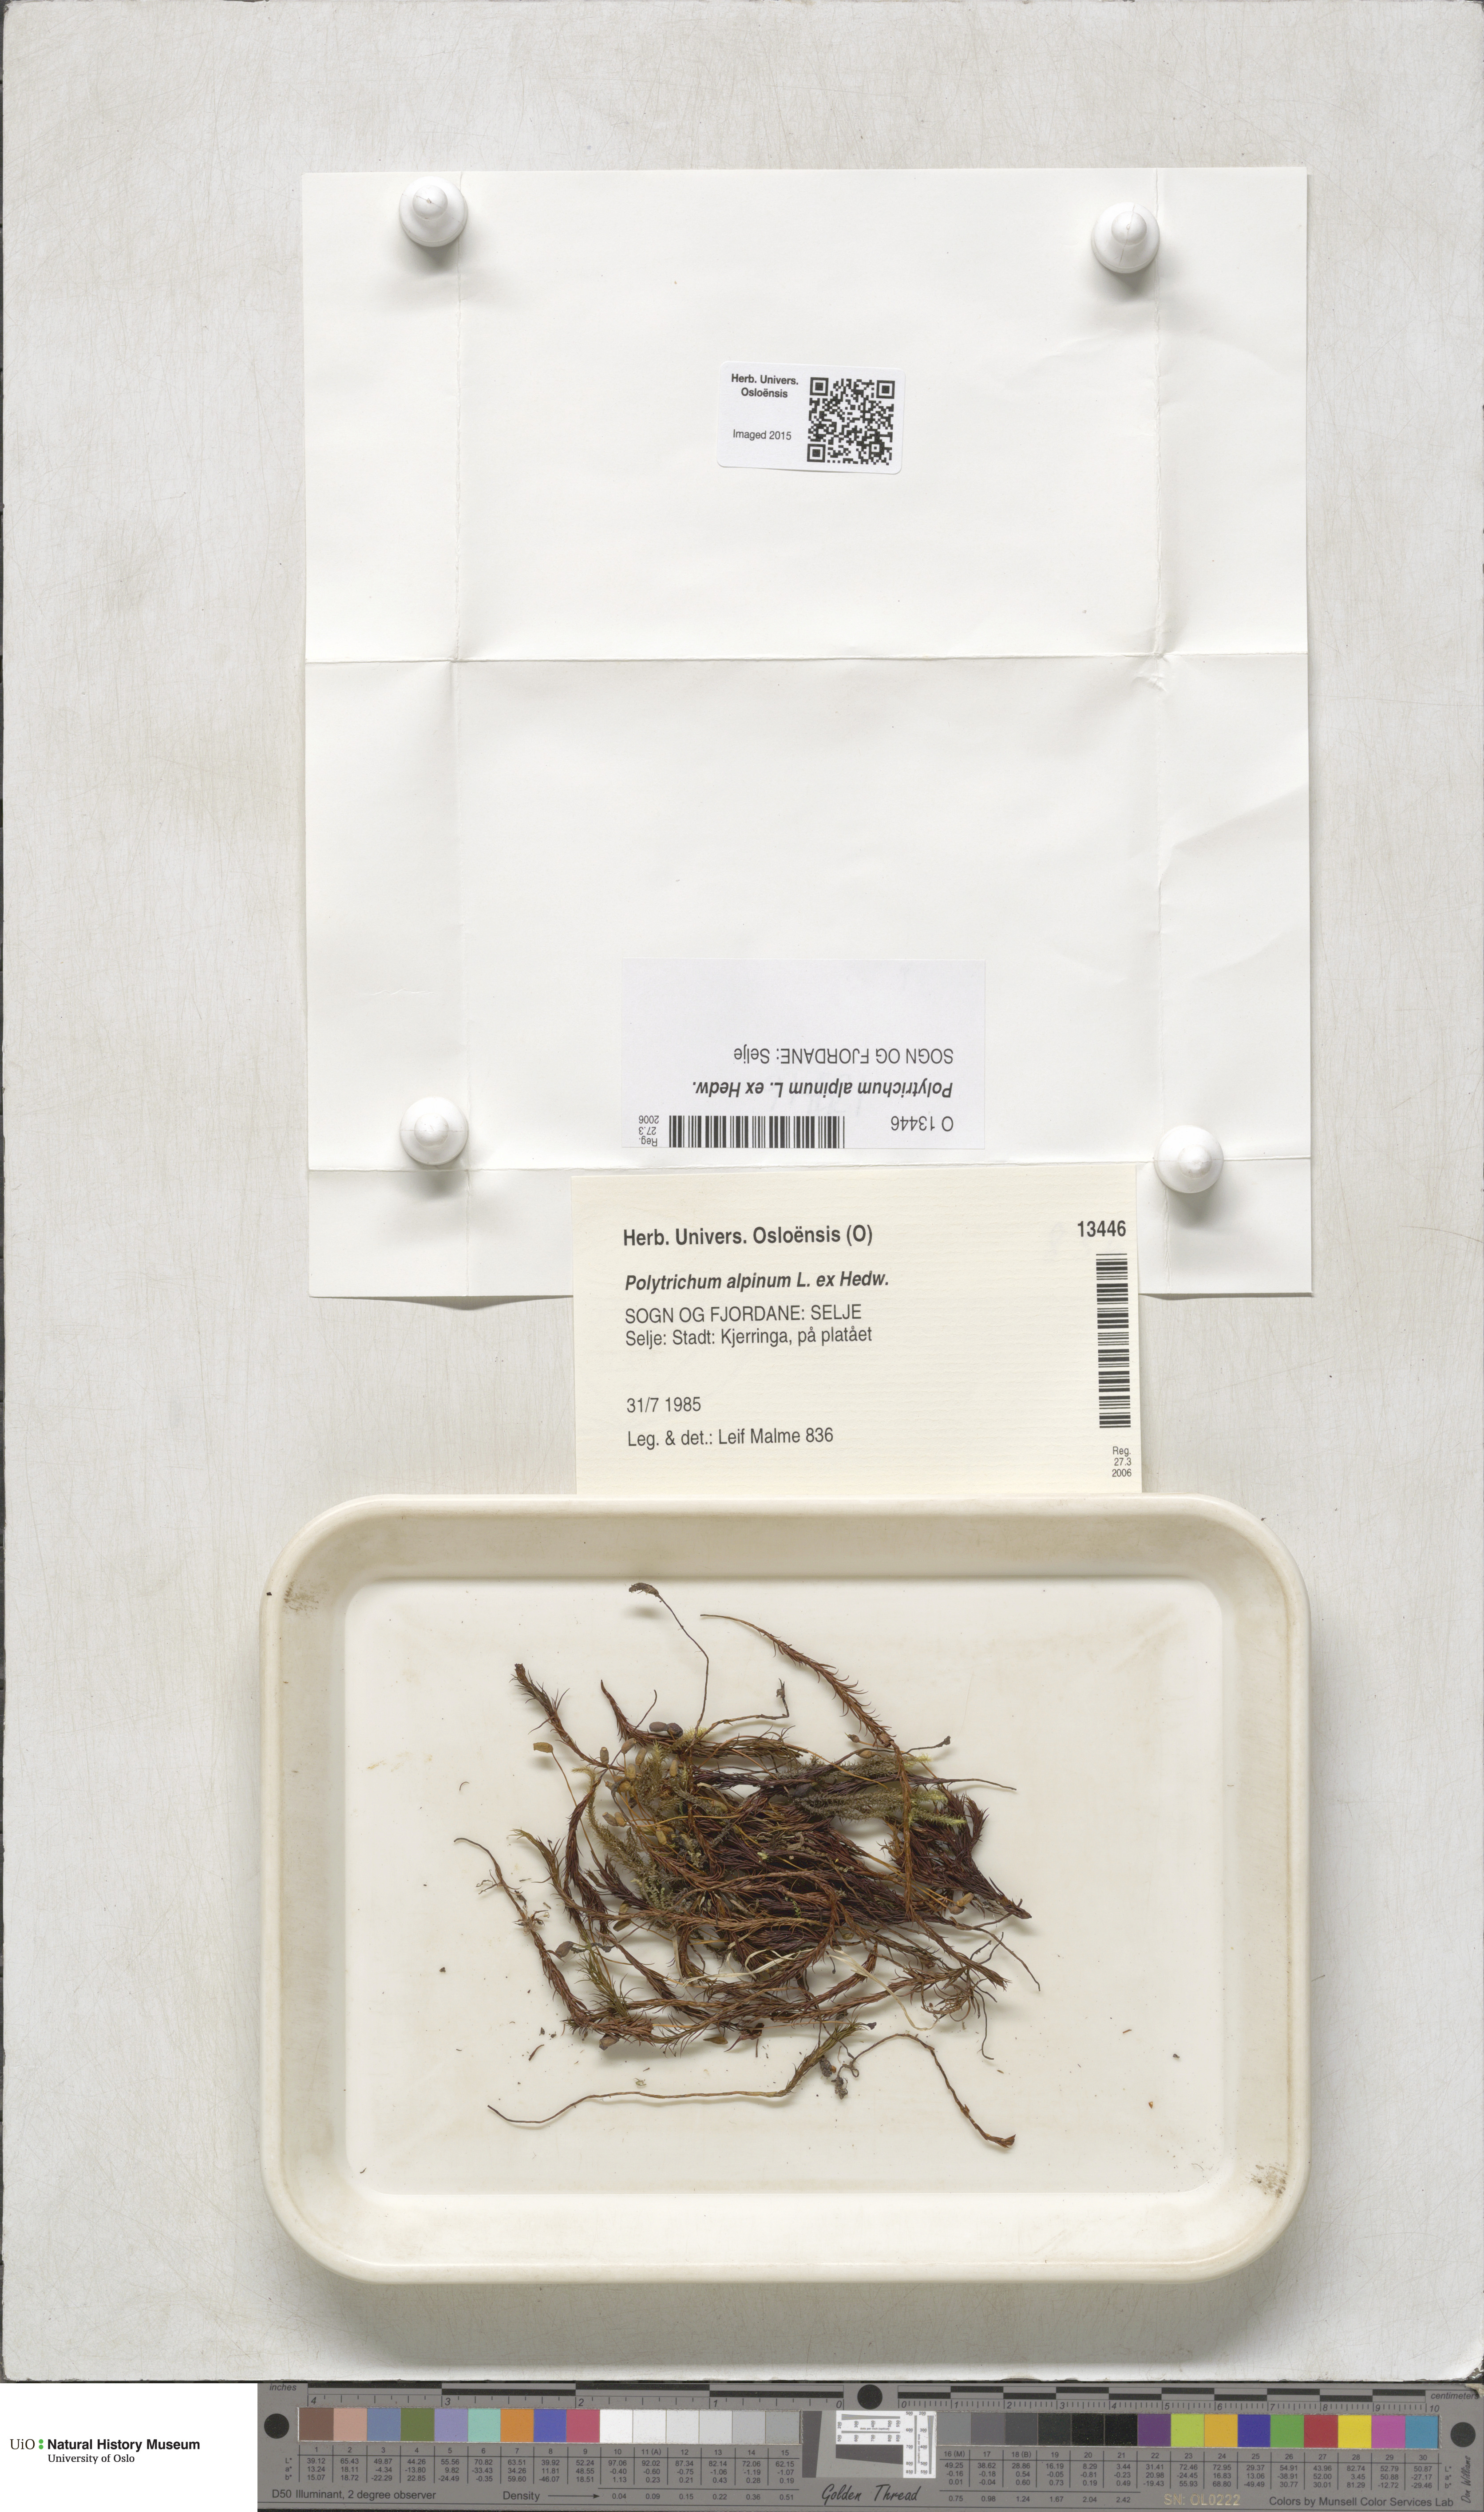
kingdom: Plantae
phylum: Bryophyta
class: Polytrichopsida
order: Polytrichales
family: Polytrichaceae
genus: Polytrichastrum
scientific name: Polytrichastrum alpinum
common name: Alpine haircap
